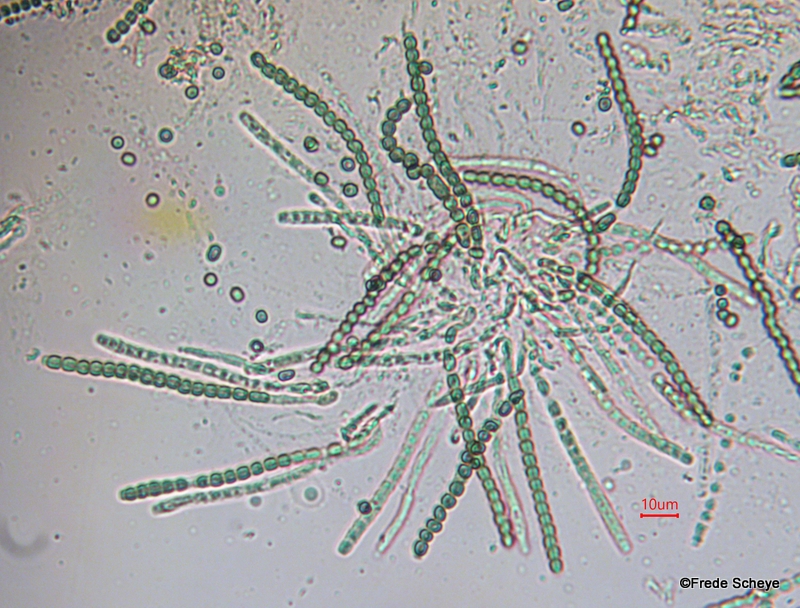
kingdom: Fungi
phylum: Ascomycota
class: Sordariomycetes
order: Hypocreales
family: Hypocreaceae
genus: Trichoderma
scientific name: Trichoderma aureoviride
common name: æggegul kødkerne
